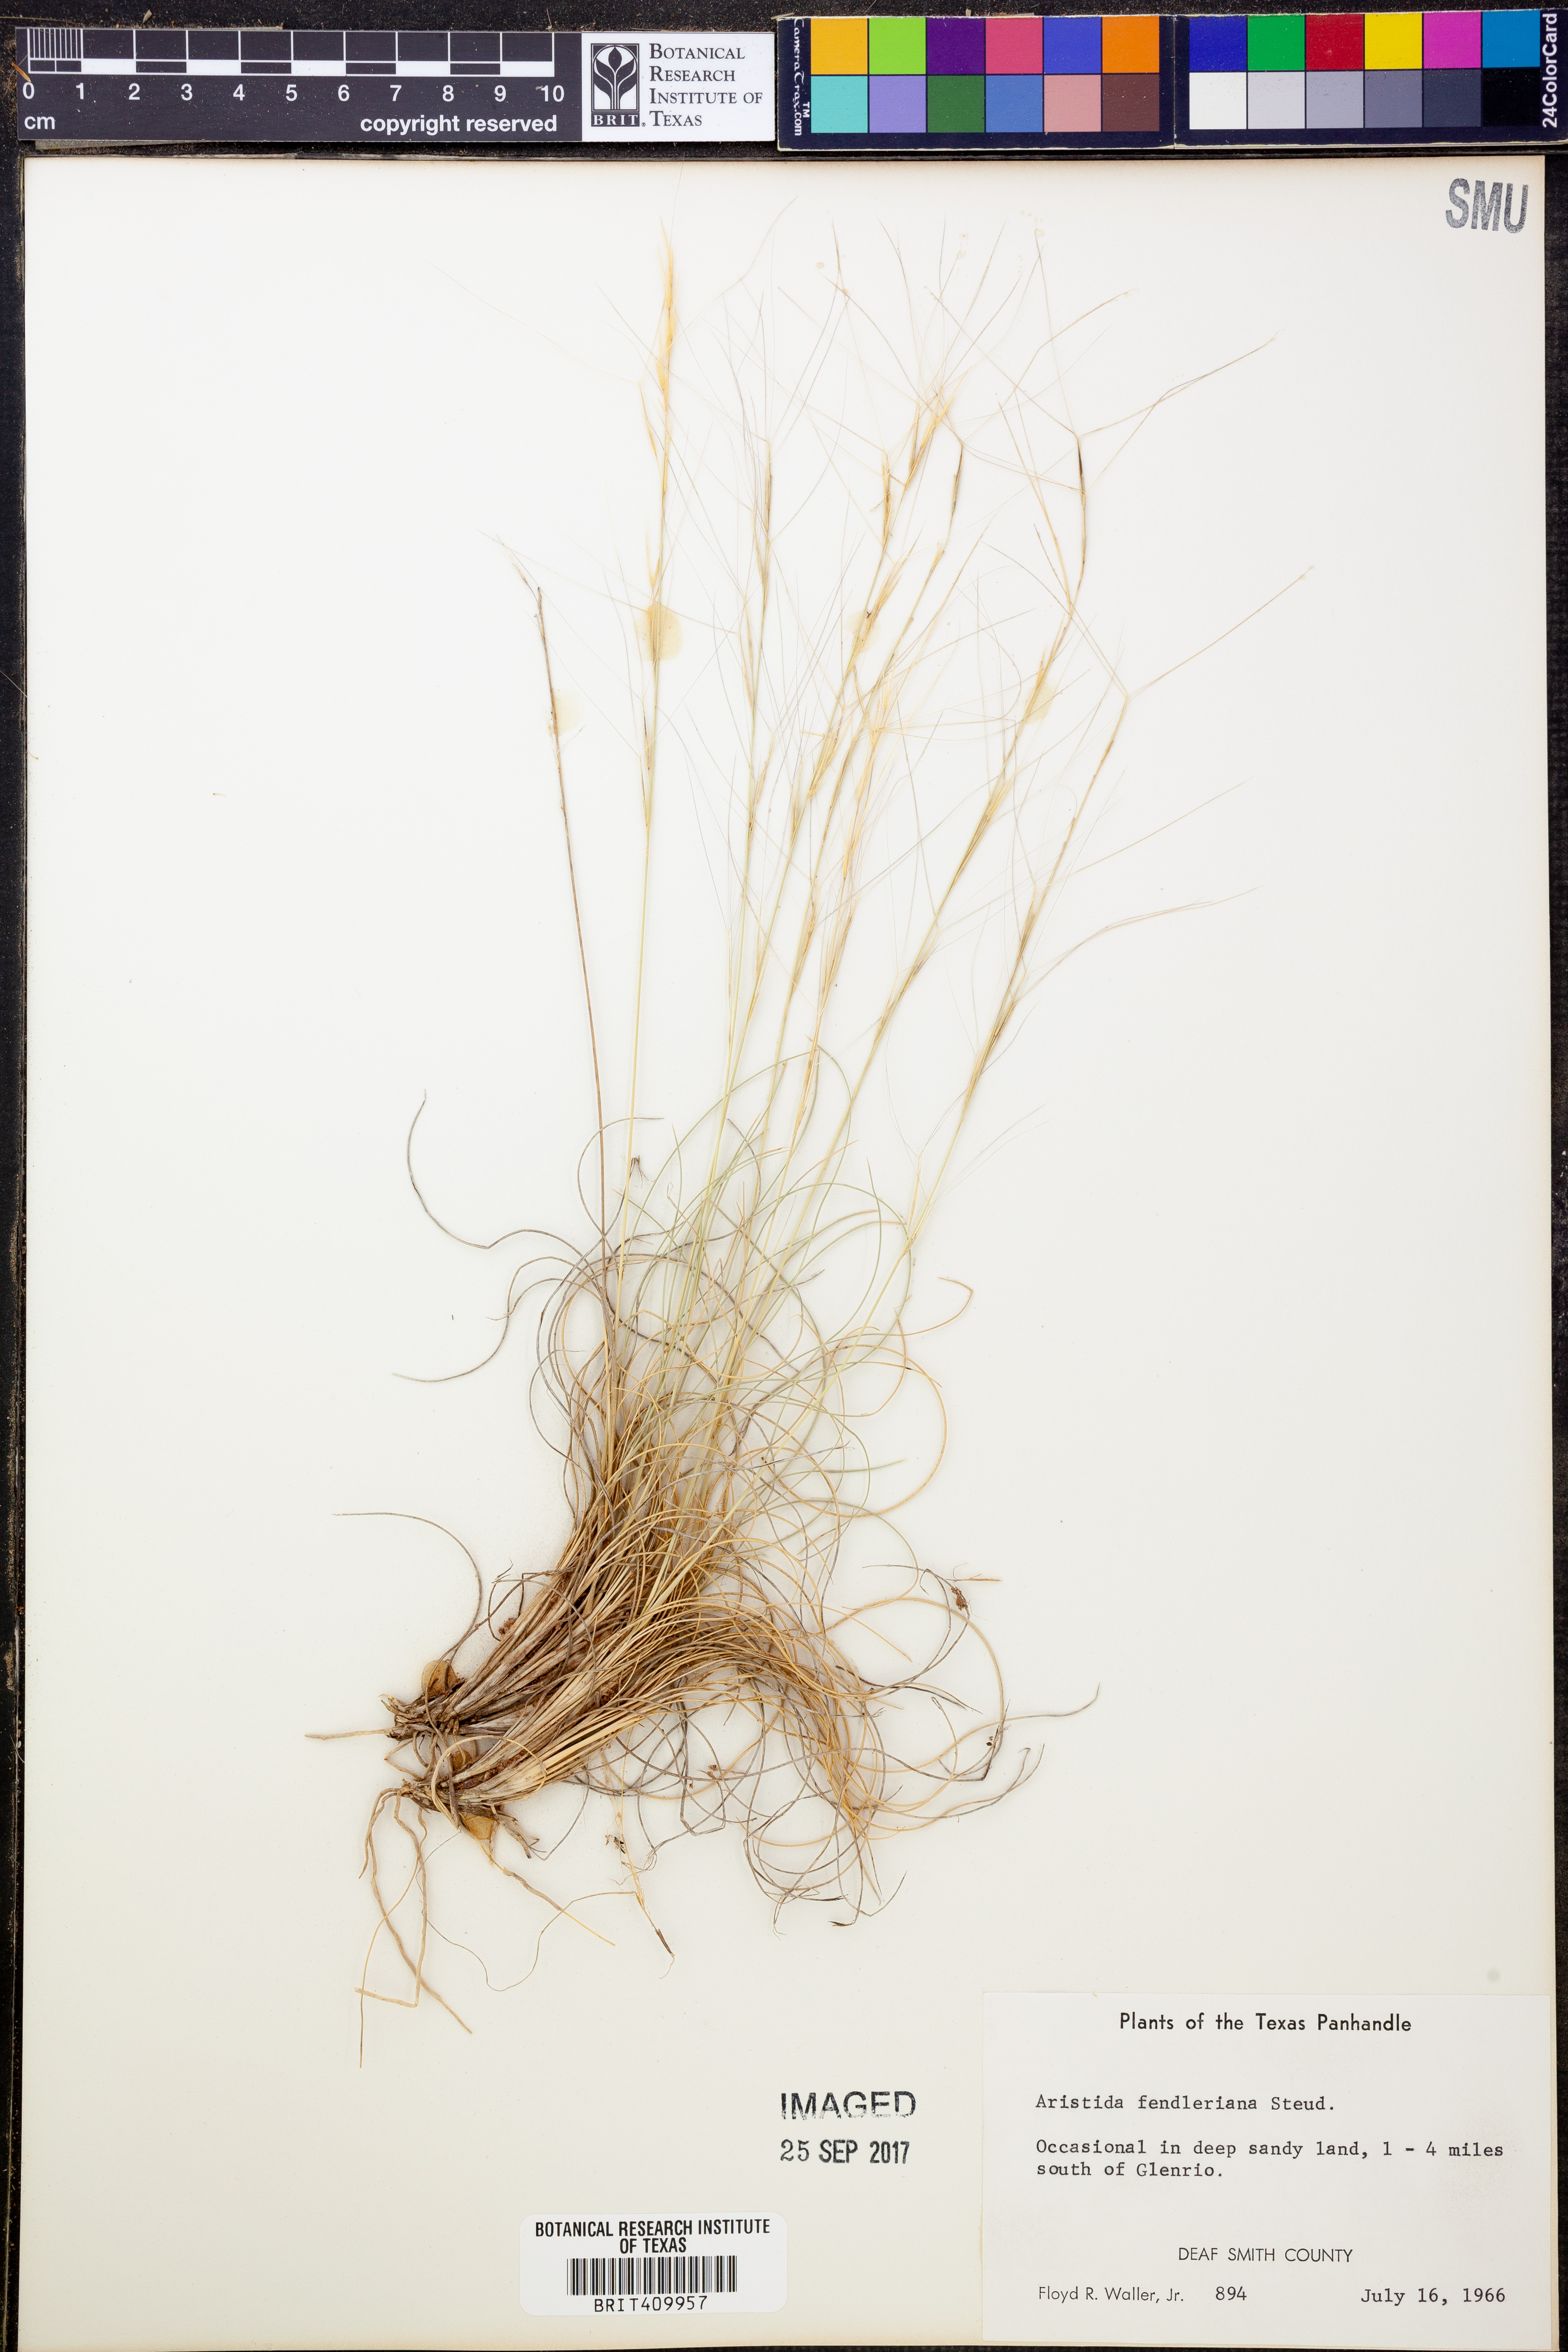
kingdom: Plantae
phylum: Tracheophyta
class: Liliopsida
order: Poales
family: Poaceae
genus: Aristida
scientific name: Aristida fendleriana
